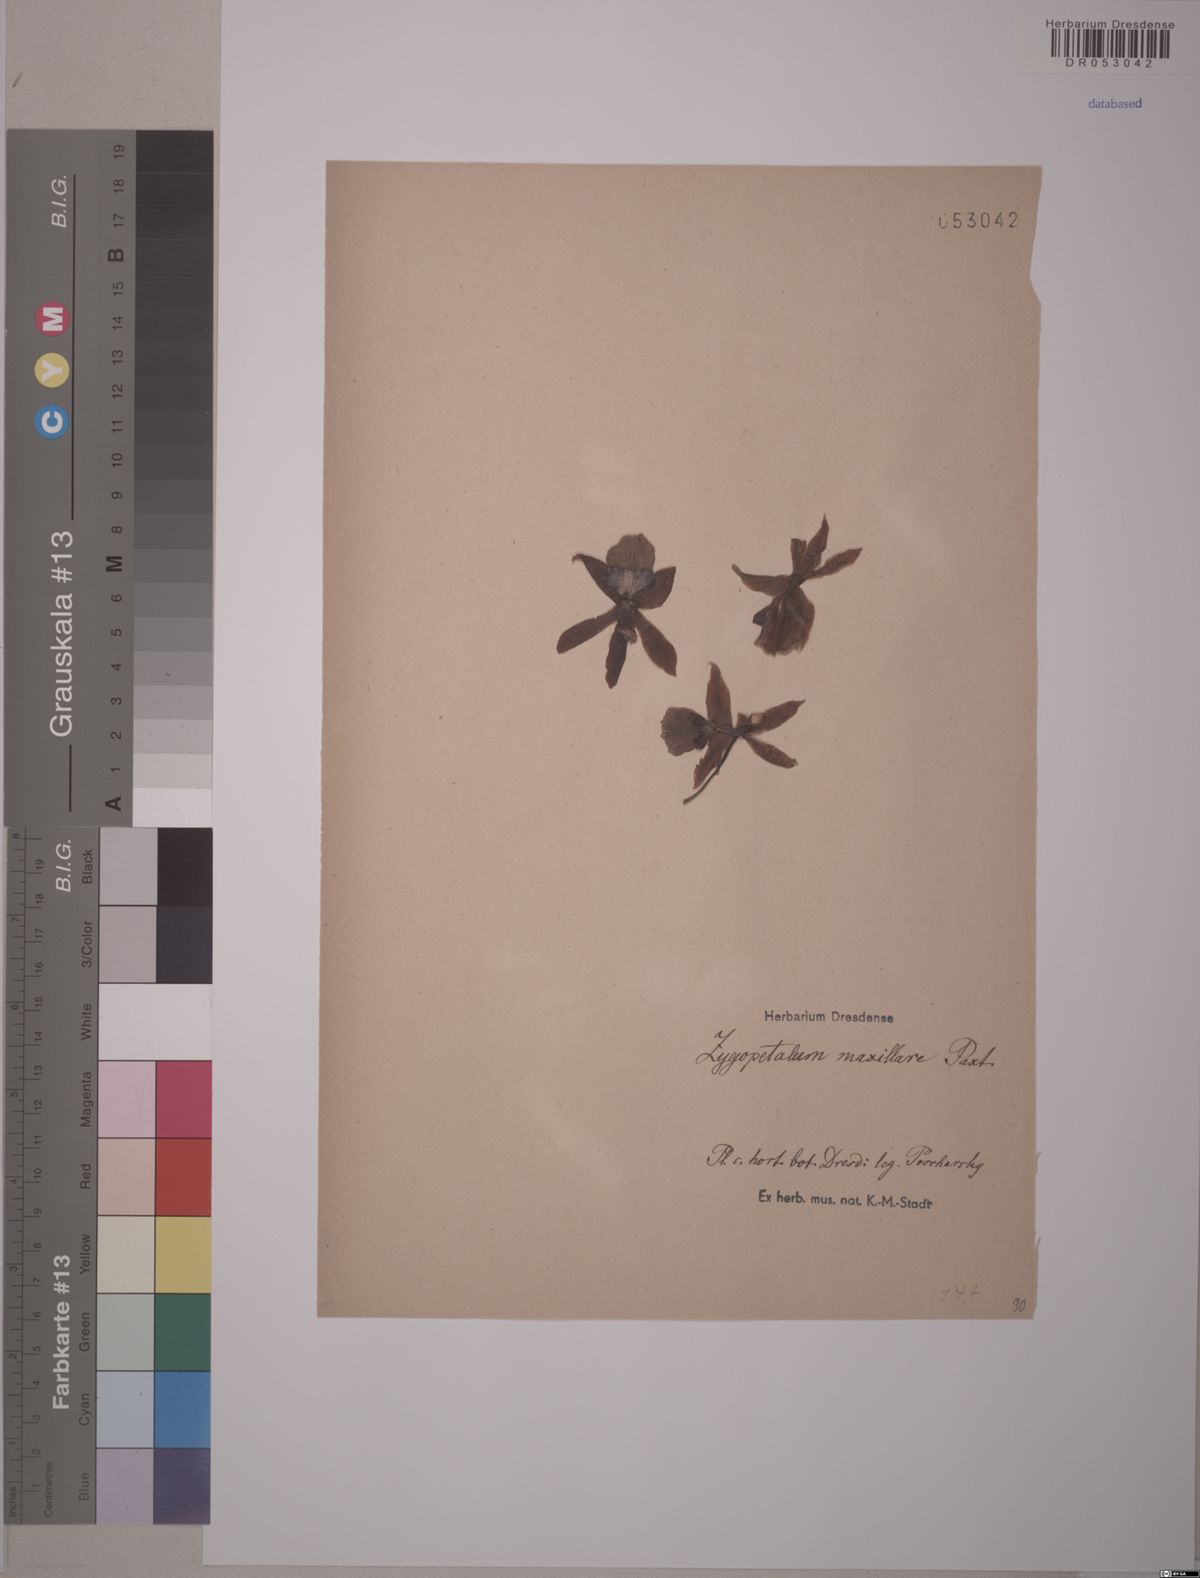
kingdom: Plantae
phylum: Tracheophyta
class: Liliopsida
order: Asparagales
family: Orchidaceae
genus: Zygopetalum
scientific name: Zygopetalum maxillare
